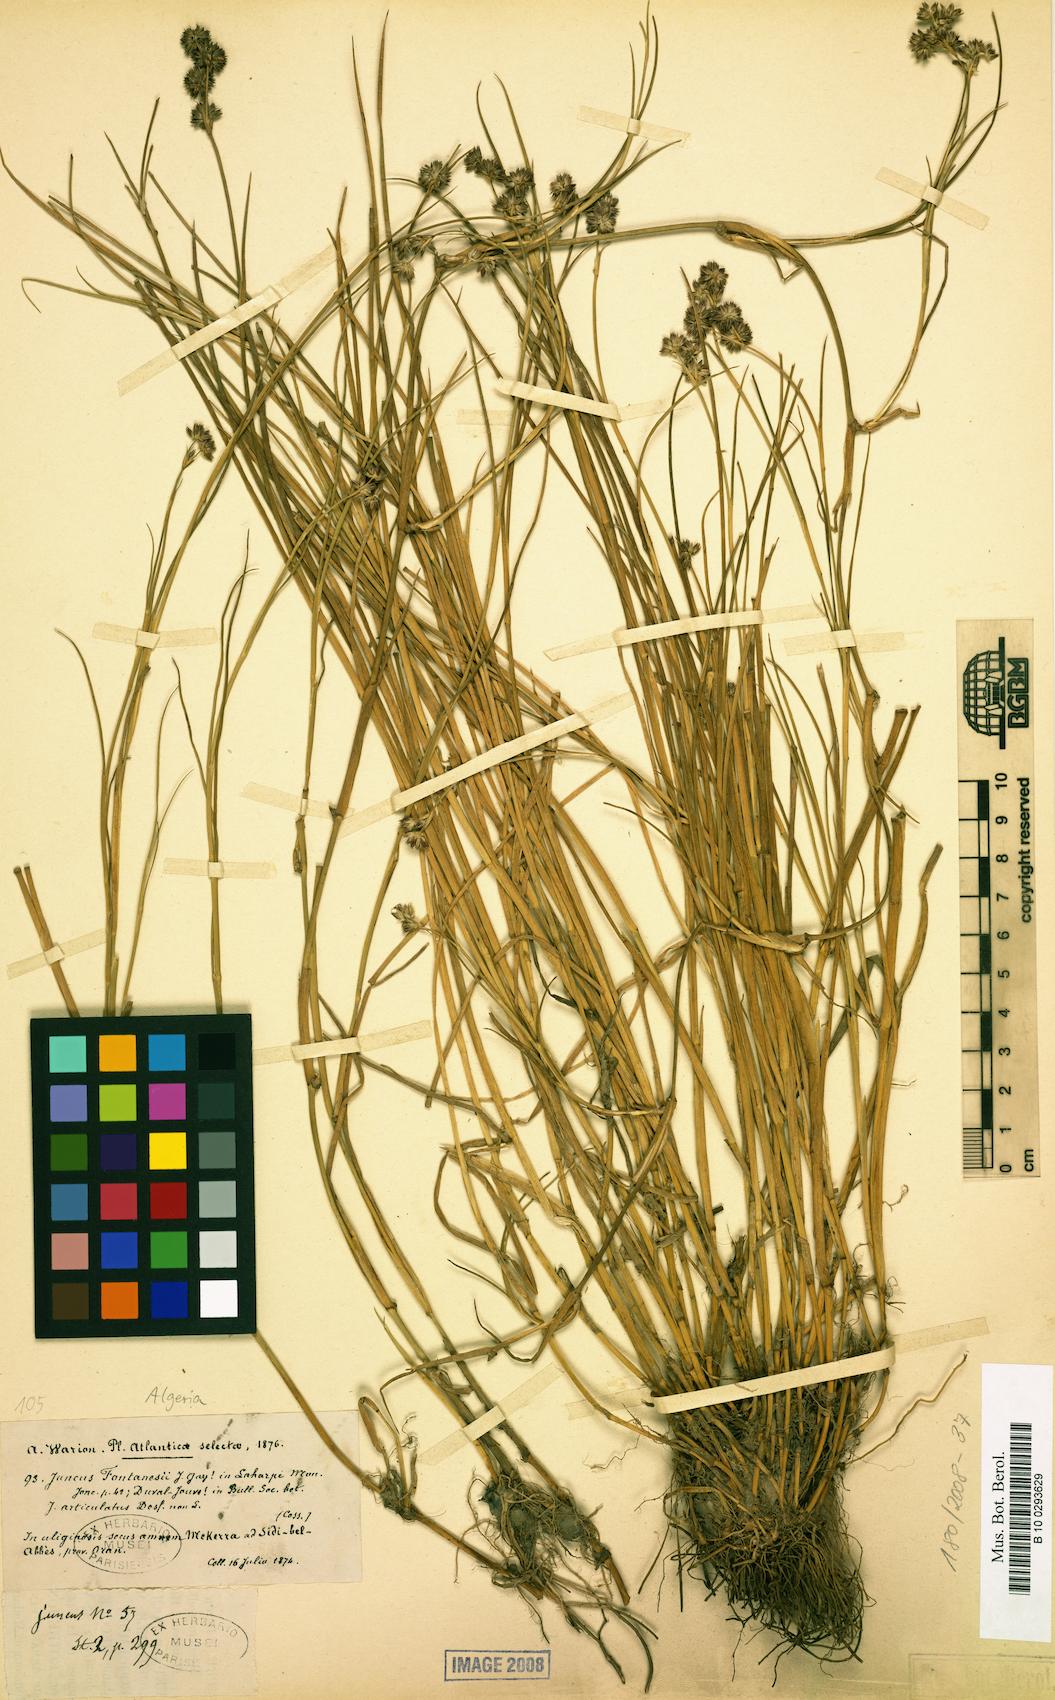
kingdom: Plantae
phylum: Tracheophyta
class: Liliopsida
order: Poales
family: Juncaceae
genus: Juncus
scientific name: Juncus fontanesii
